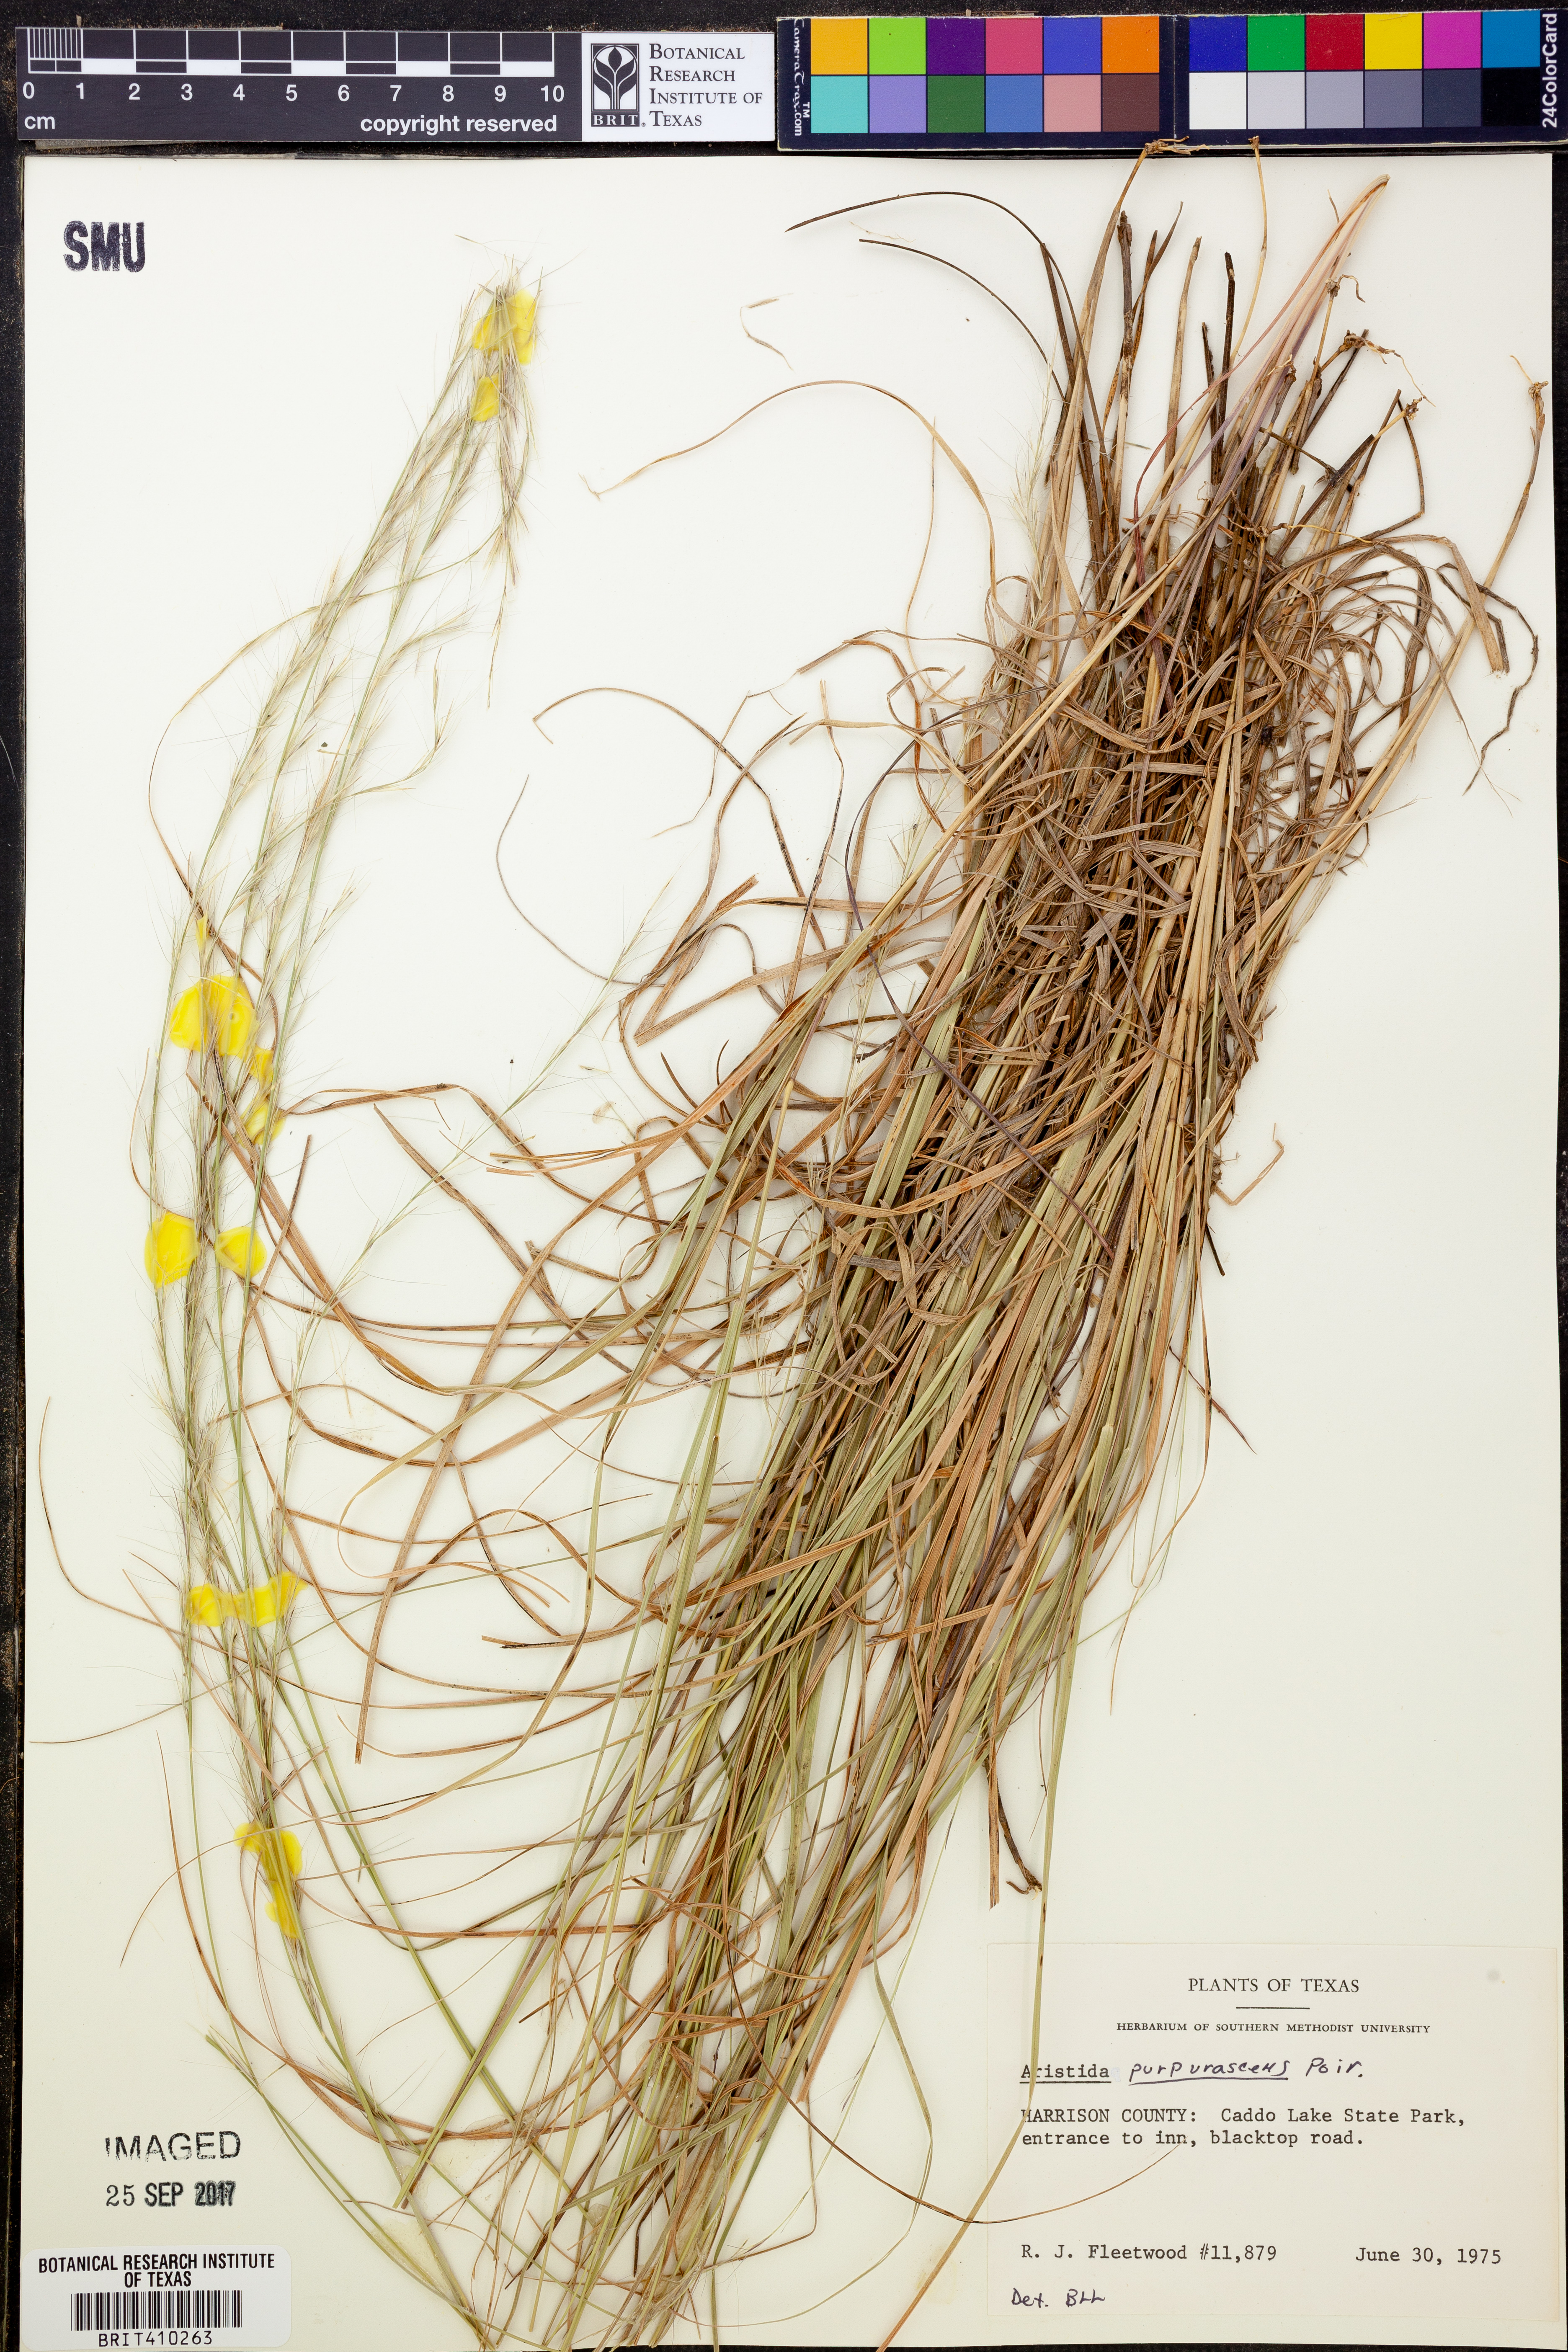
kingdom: Plantae
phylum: Tracheophyta
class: Liliopsida
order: Poales
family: Poaceae
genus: Aristida
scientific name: Aristida purpurascens
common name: Arrow-feather
